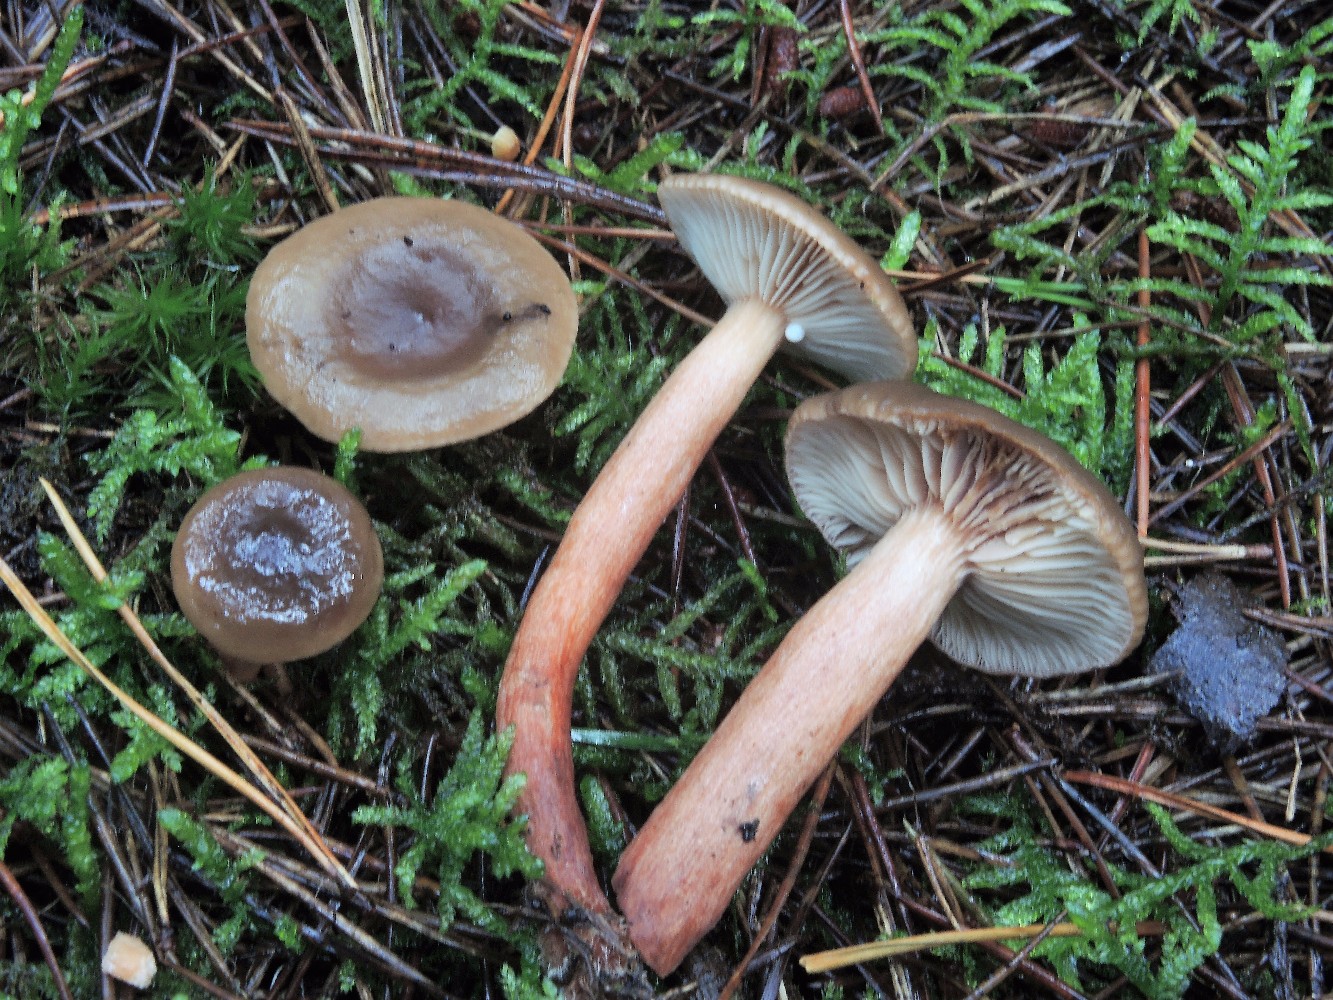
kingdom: Fungi
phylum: Basidiomycota
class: Agaricomycetes
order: Russulales
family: Russulaceae
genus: Lactarius
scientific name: Lactarius hepaticus
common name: leverbrun mælkehat
